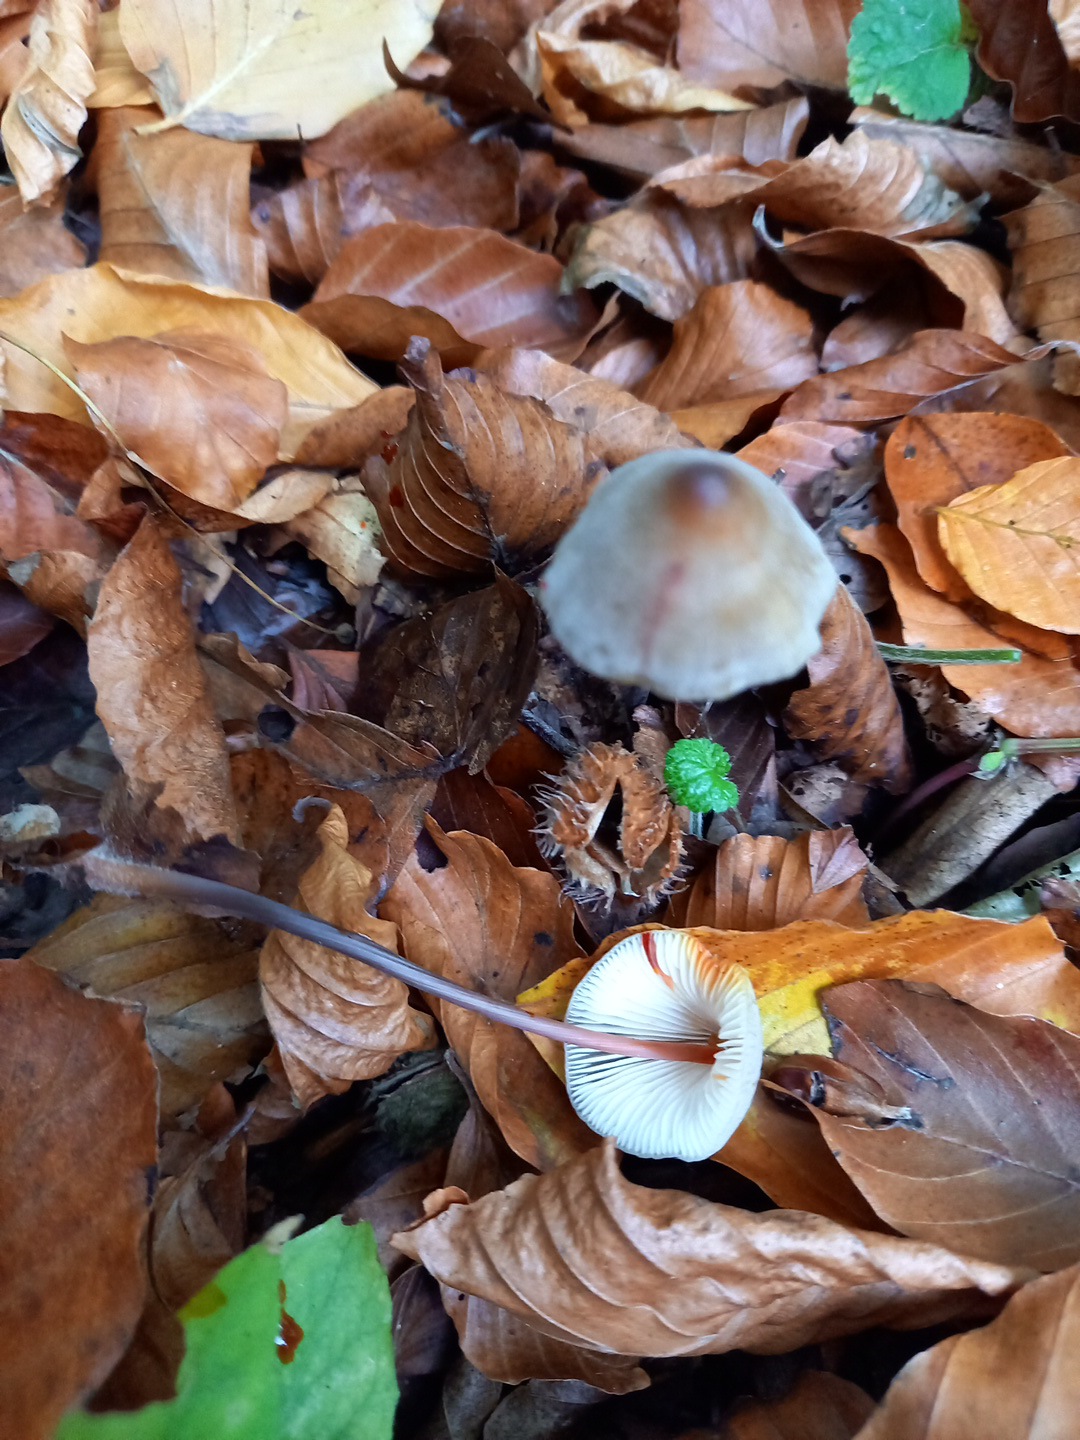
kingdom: Fungi
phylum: Basidiomycota
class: Agaricomycetes
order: Agaricales
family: Mycenaceae
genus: Mycena
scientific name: Mycena crocata
